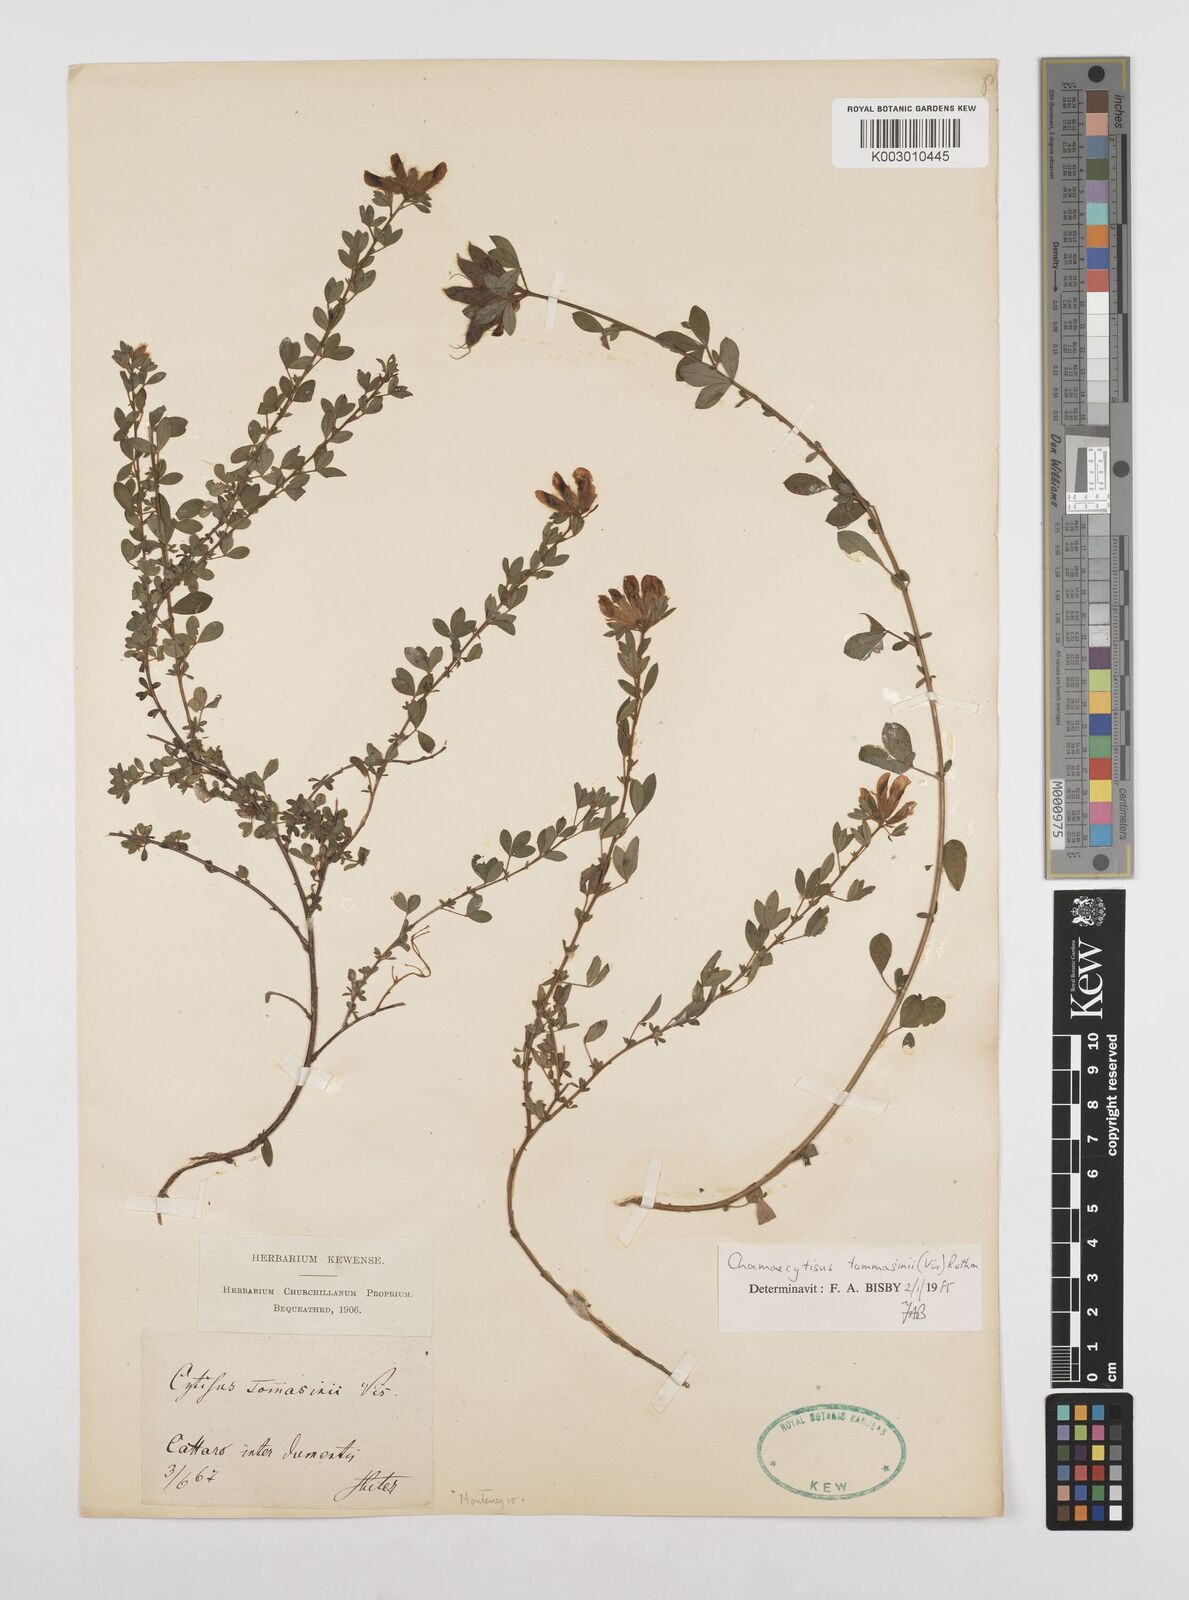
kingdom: Plantae
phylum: Tracheophyta
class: Magnoliopsida
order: Fabales
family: Fabaceae
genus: Chamaecytisus
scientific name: Chamaecytisus tommasinii
